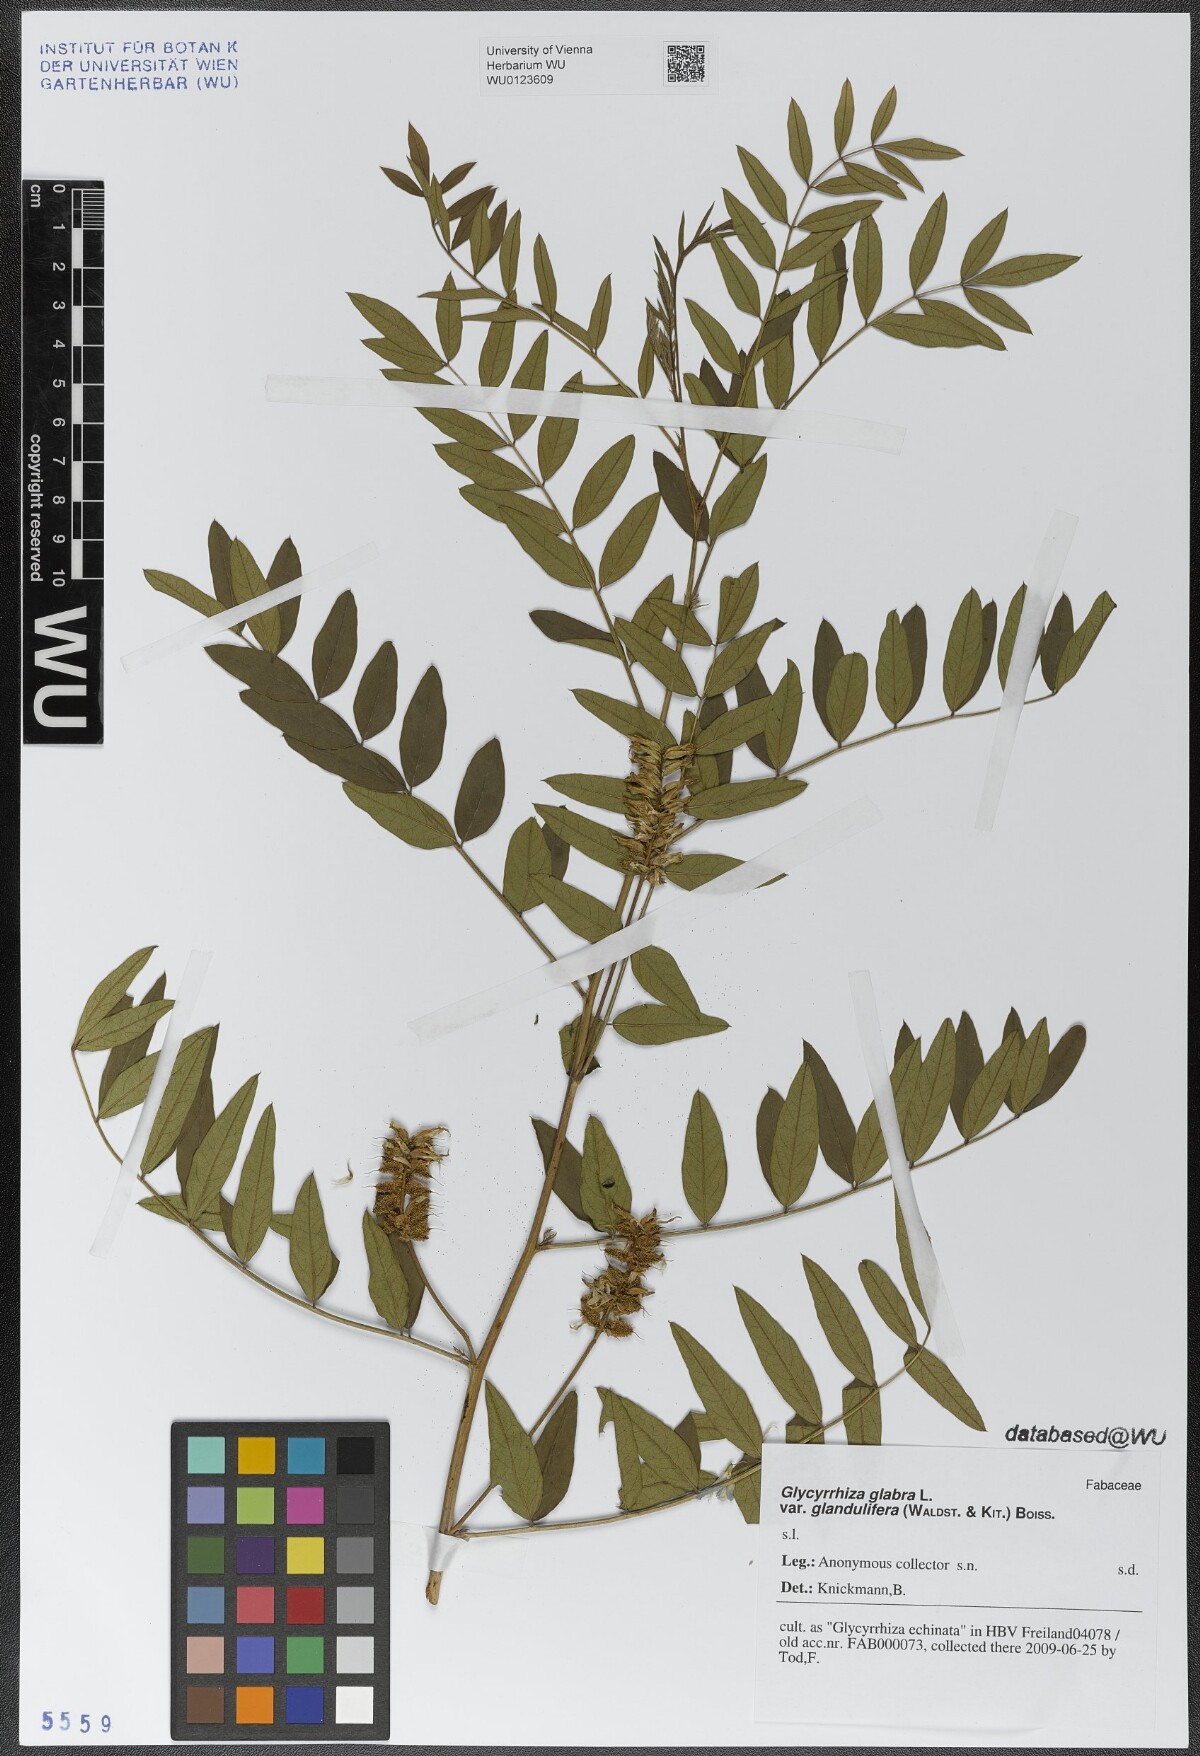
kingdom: Plantae
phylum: Tracheophyta
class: Magnoliopsida
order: Fabales
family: Fabaceae
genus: Glycyrrhiza
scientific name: Glycyrrhiza glabra
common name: Liquorice
